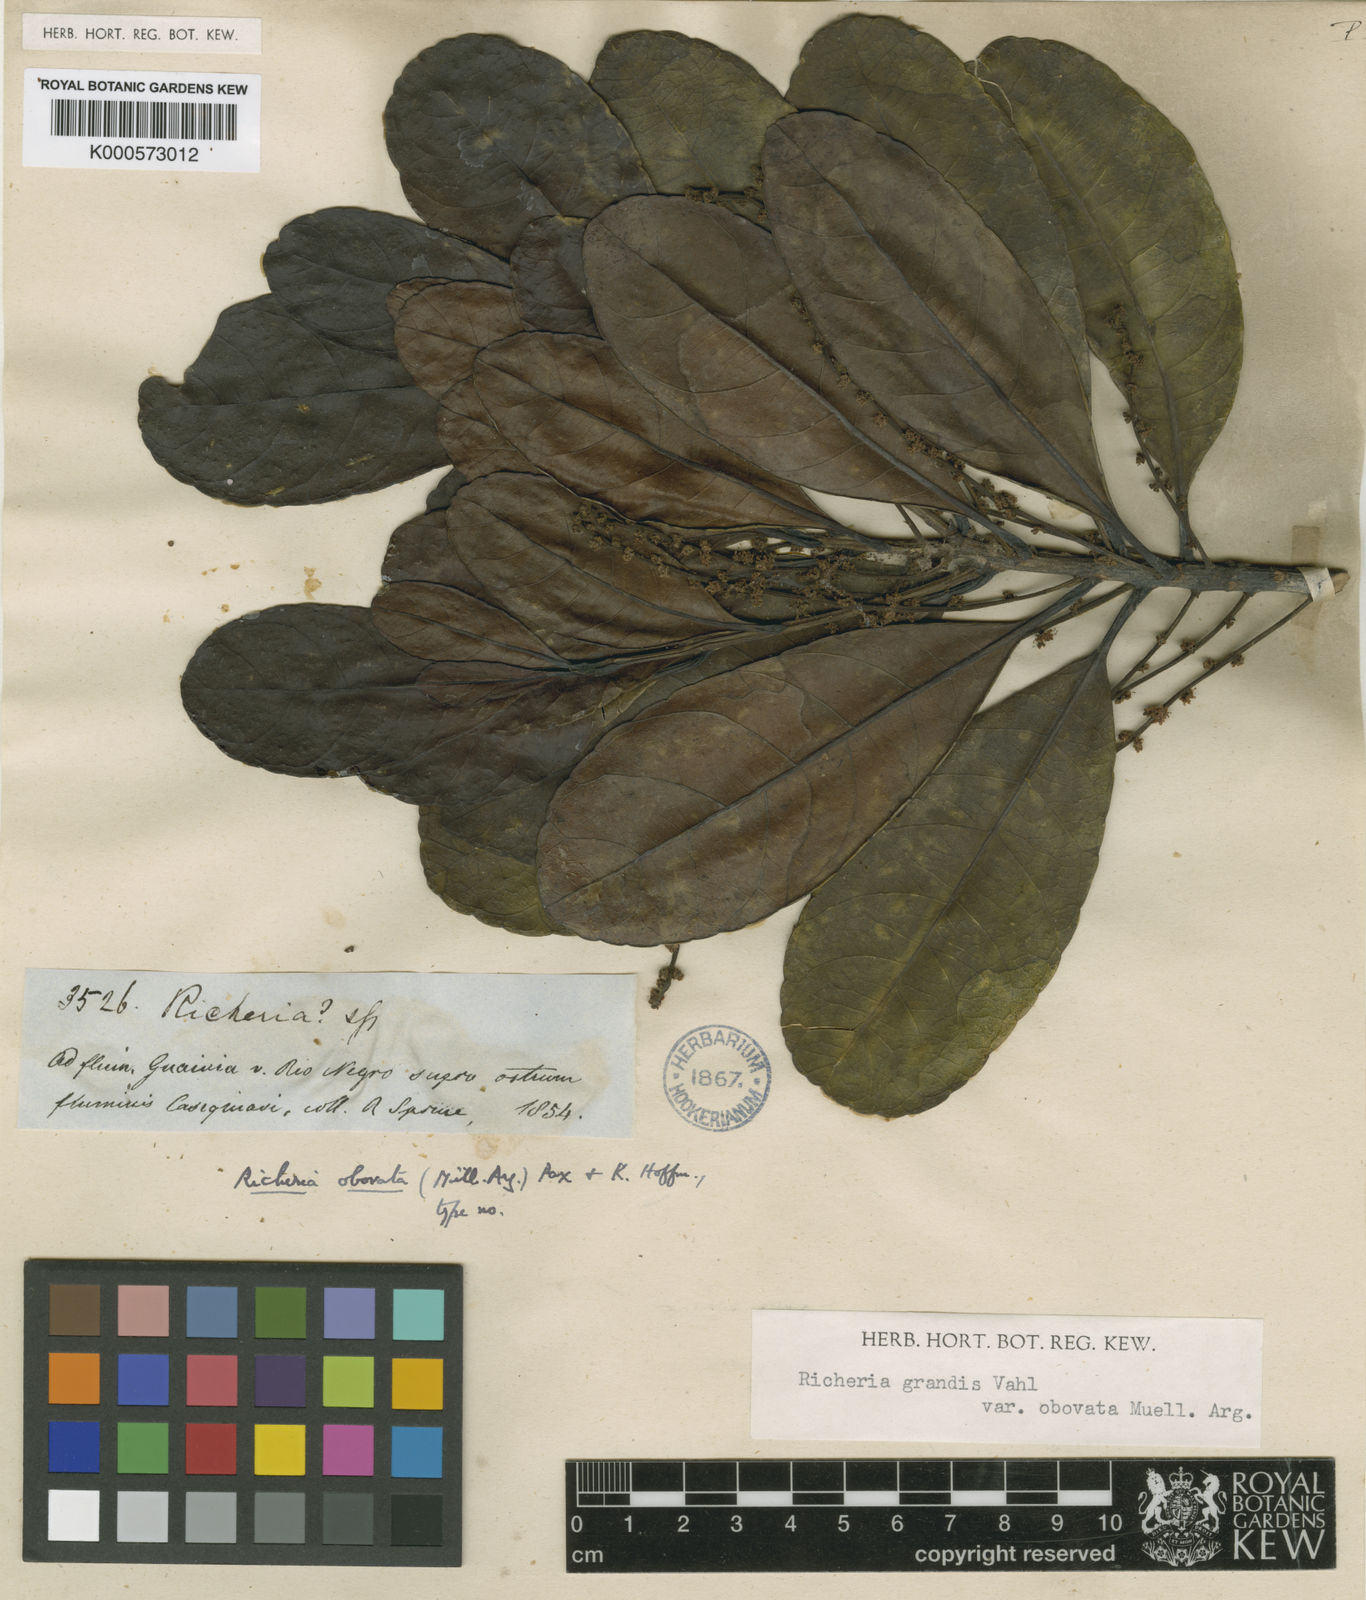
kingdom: Plantae
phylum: Tracheophyta
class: Magnoliopsida
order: Malpighiales
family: Phyllanthaceae
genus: Richeria
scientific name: Richeria
